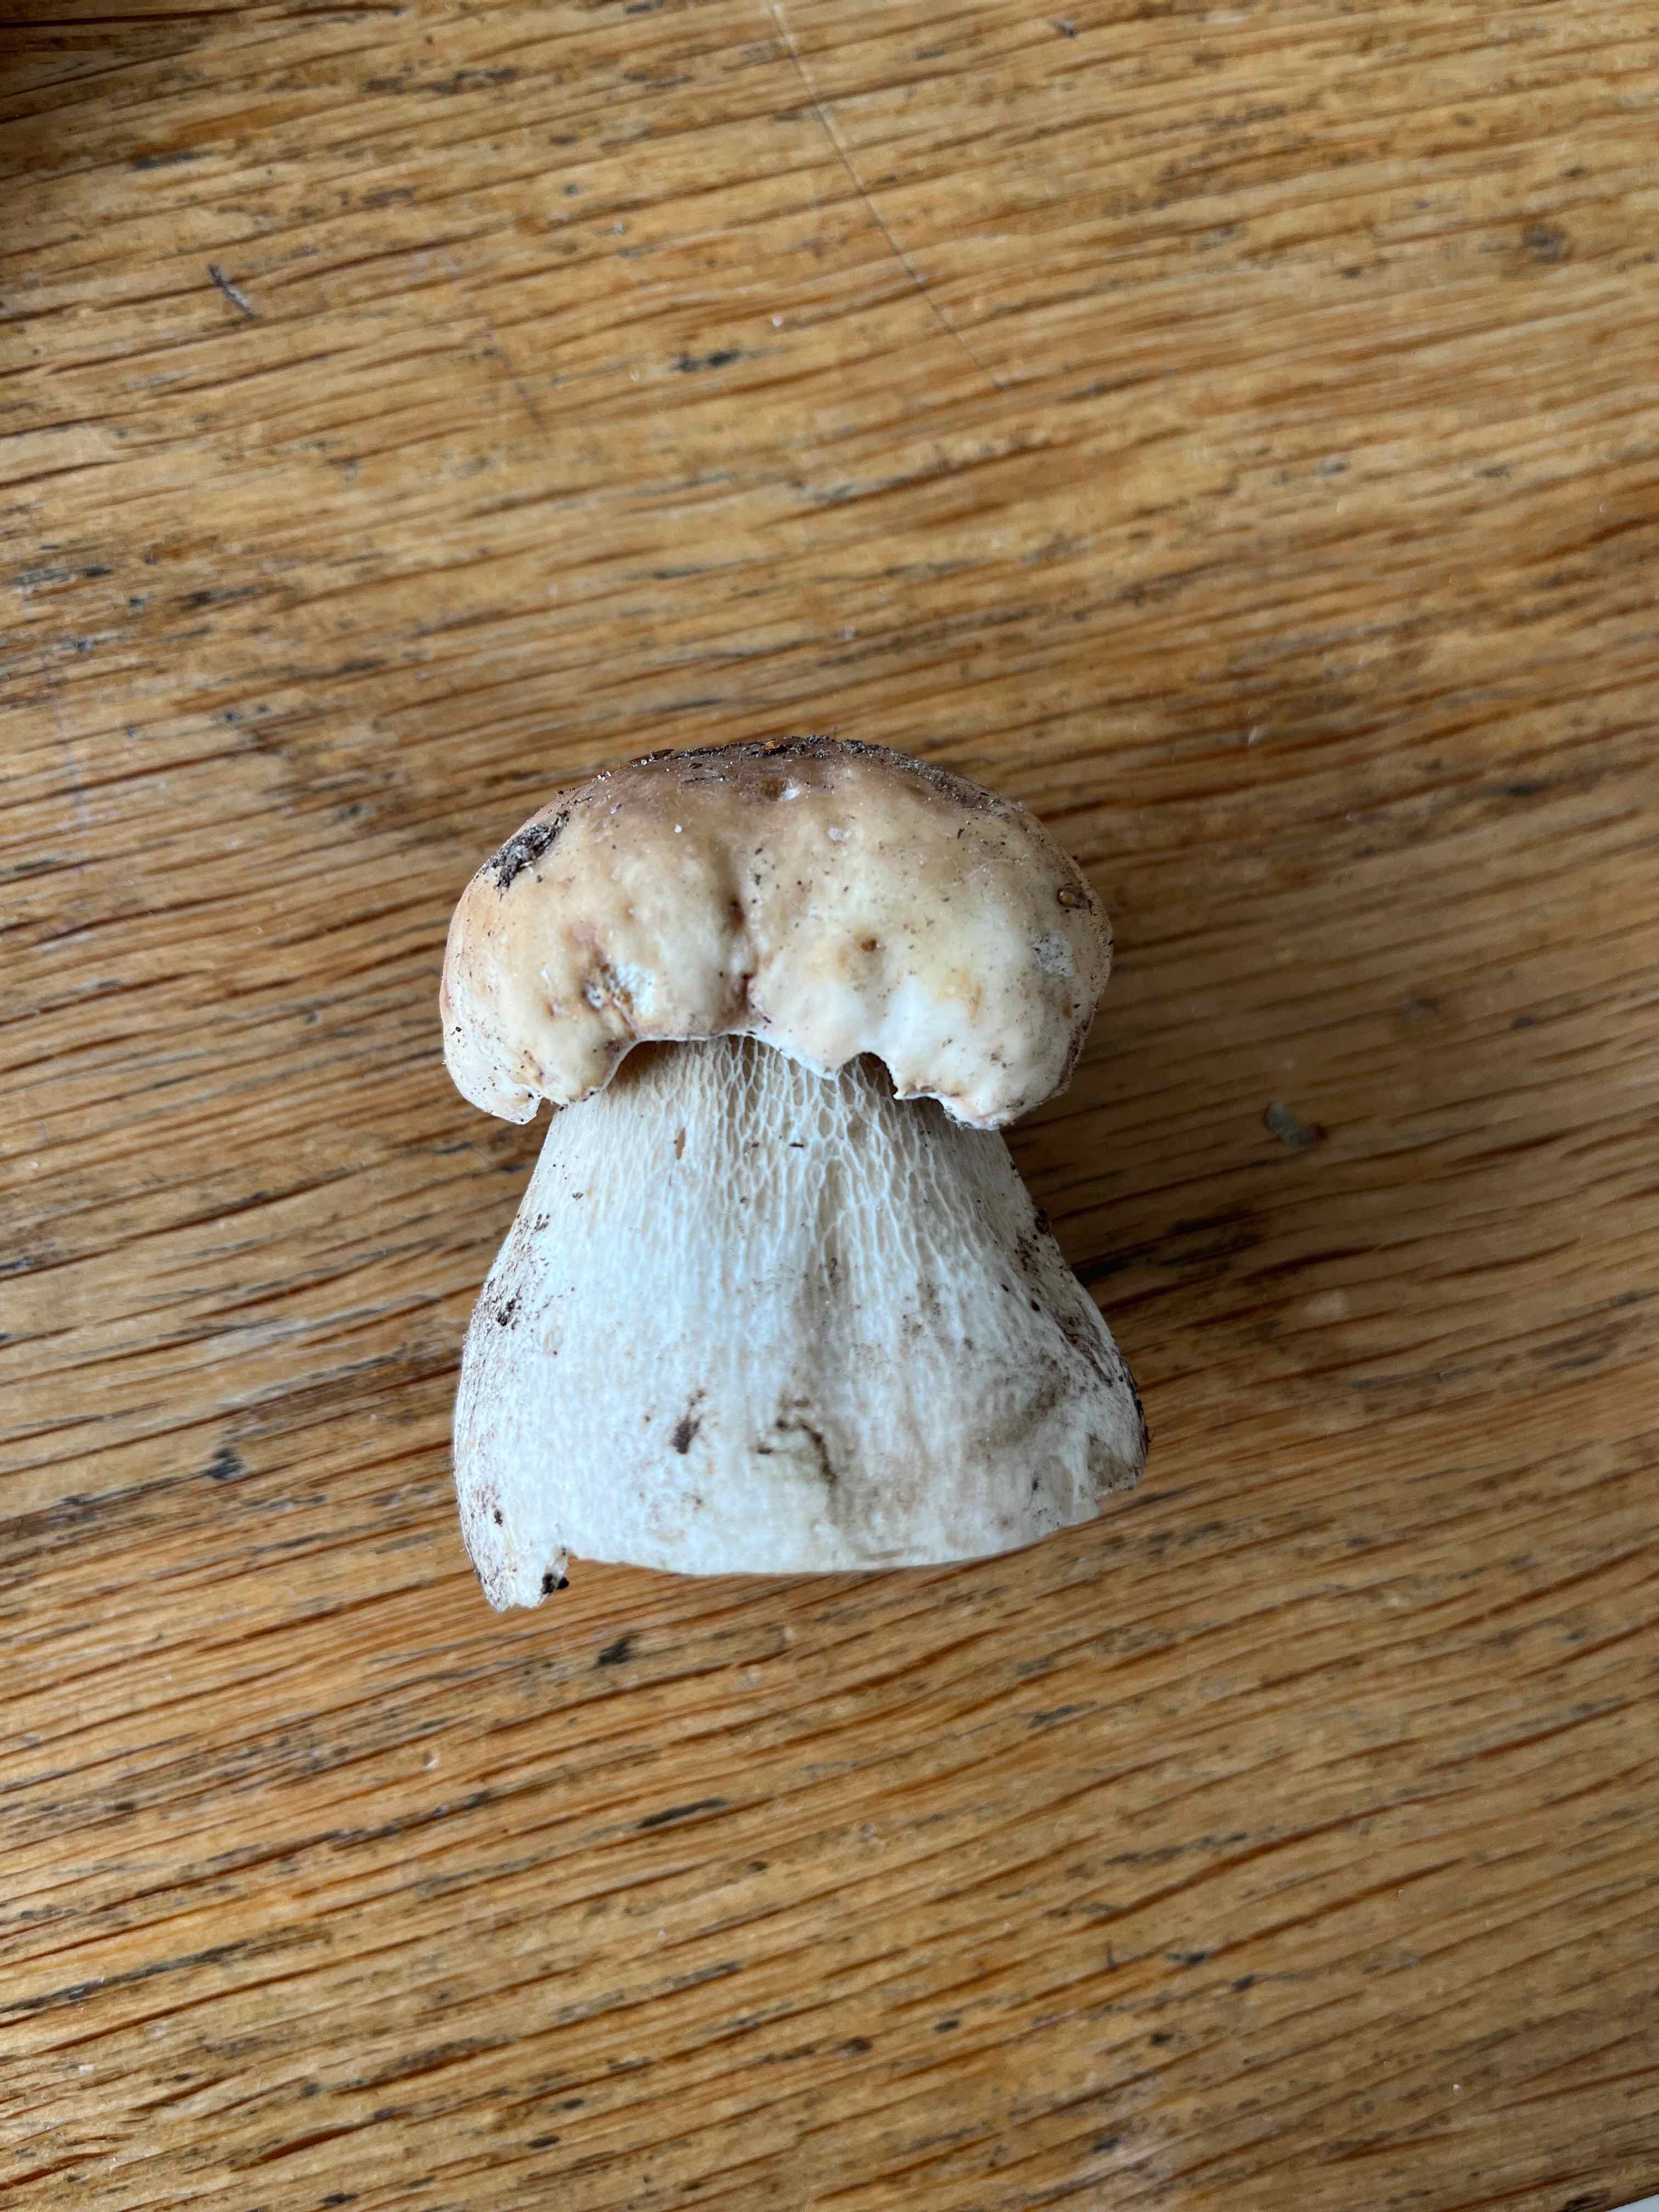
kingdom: Fungi
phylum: Basidiomycota
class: Agaricomycetes
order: Boletales
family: Boletaceae
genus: Boletus
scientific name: Boletus edulis
